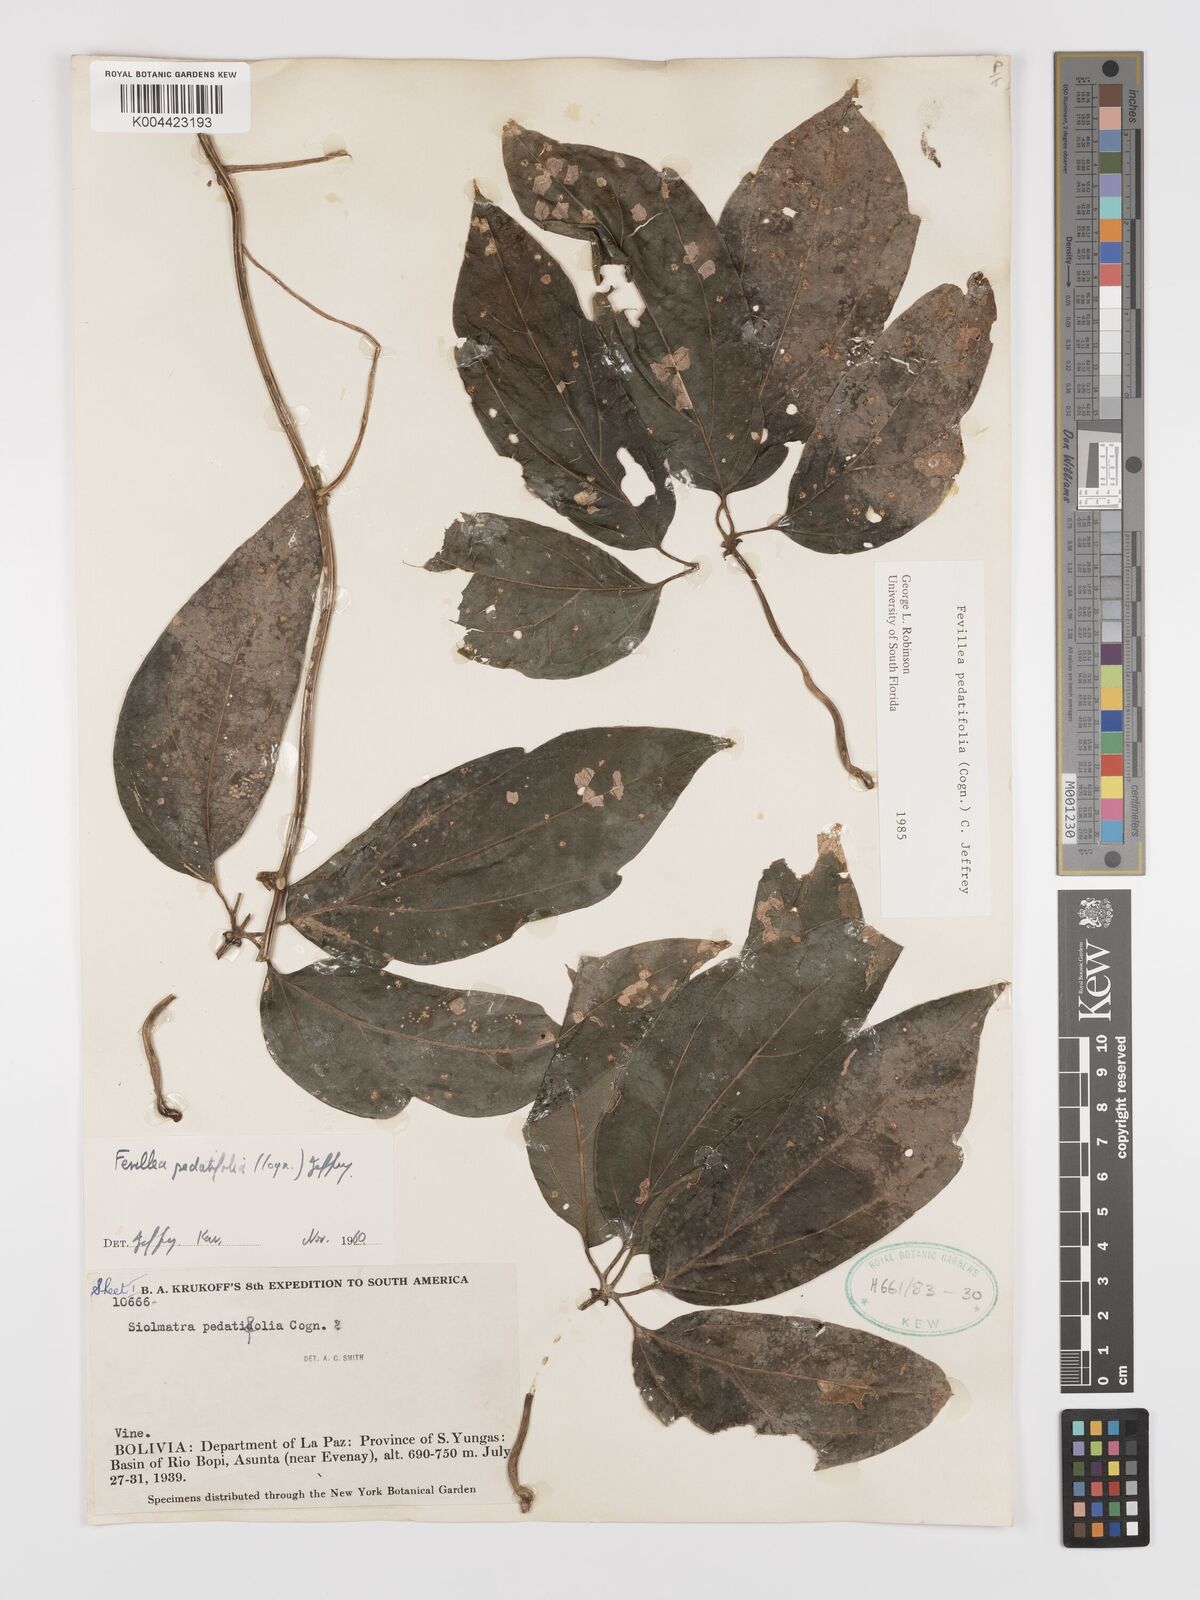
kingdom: Plantae
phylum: Tracheophyta
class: Magnoliopsida
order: Cucurbitales
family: Cucurbitaceae
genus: Fevillea
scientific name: Fevillea pedatifolia
